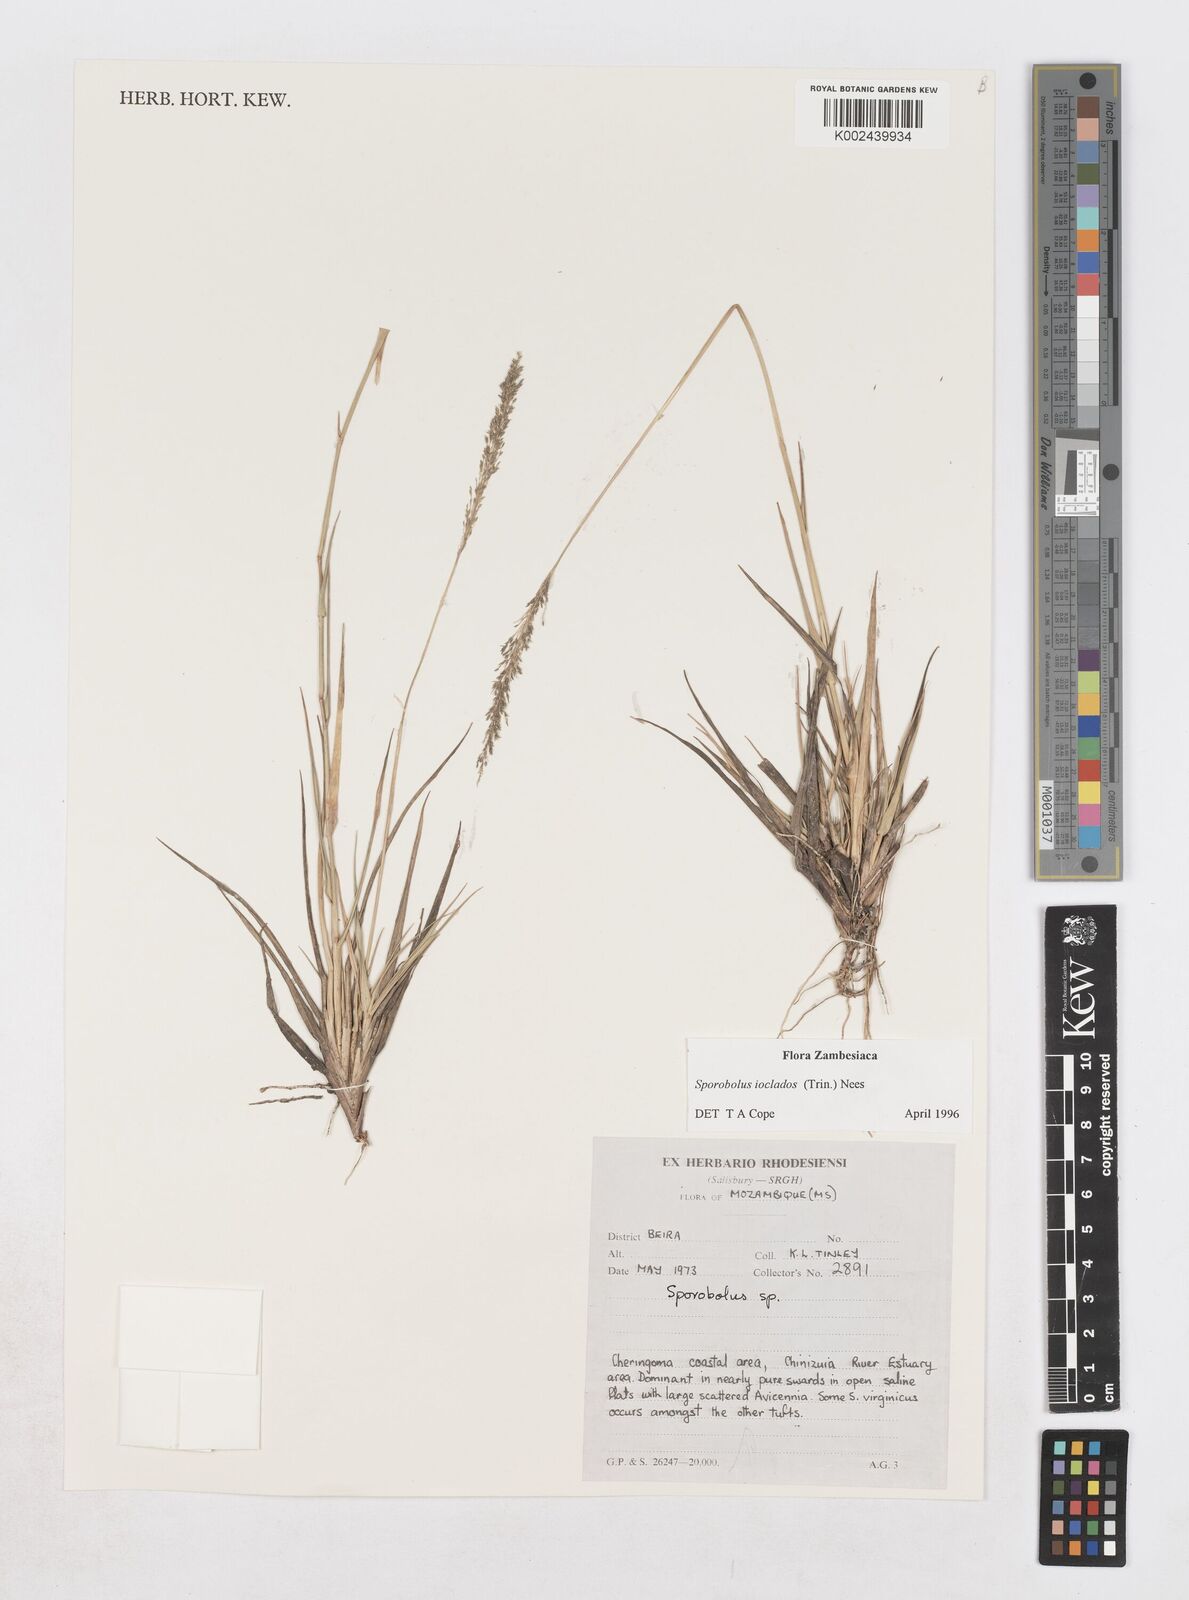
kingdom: Plantae
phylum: Tracheophyta
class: Liliopsida
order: Poales
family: Poaceae
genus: Sporobolus
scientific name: Sporobolus ioclados
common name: Pan dropseed
